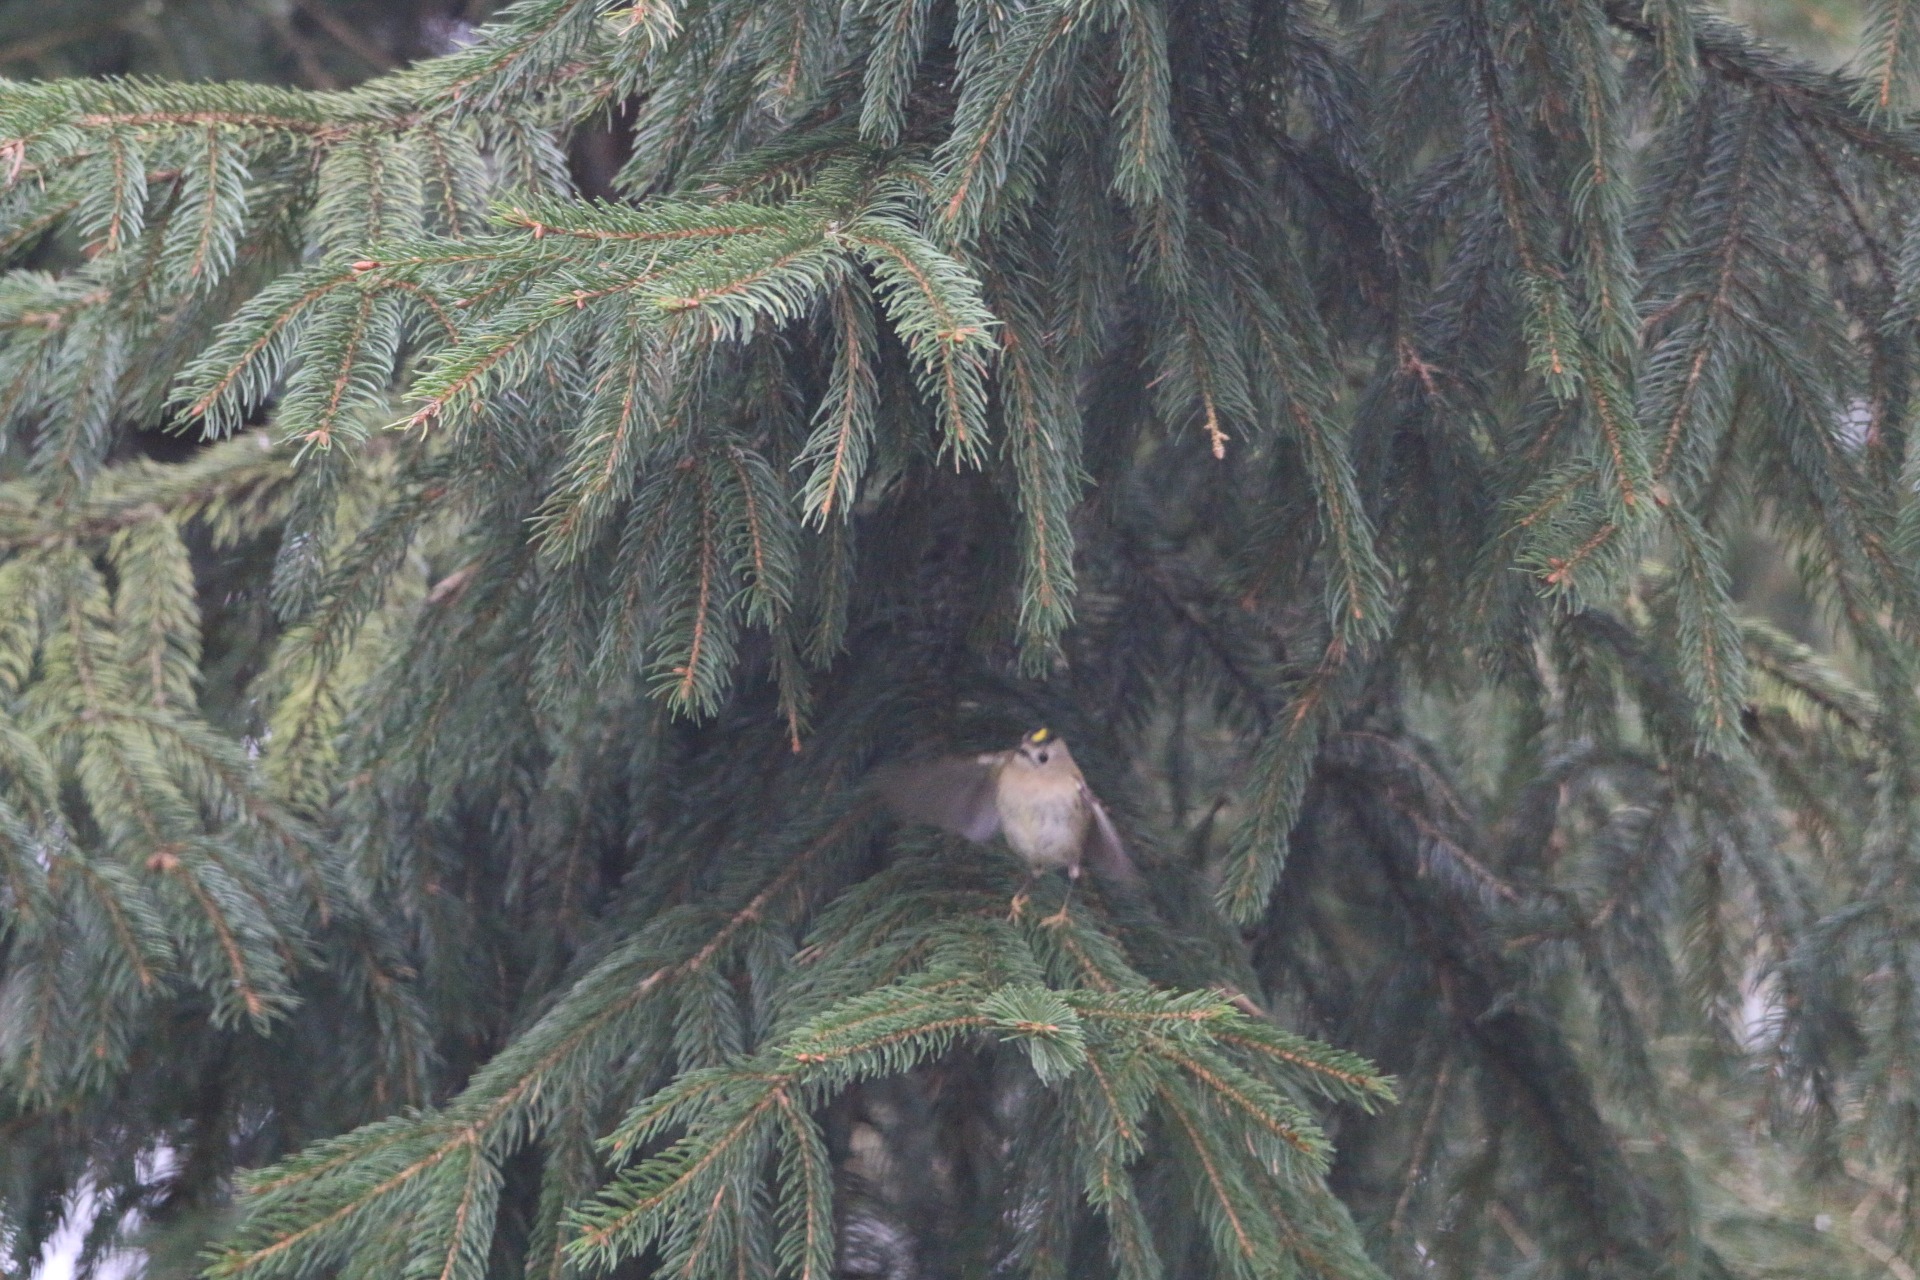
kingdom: Animalia
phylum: Chordata
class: Aves
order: Passeriformes
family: Regulidae
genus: Regulus
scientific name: Regulus regulus
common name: Fuglekonge
